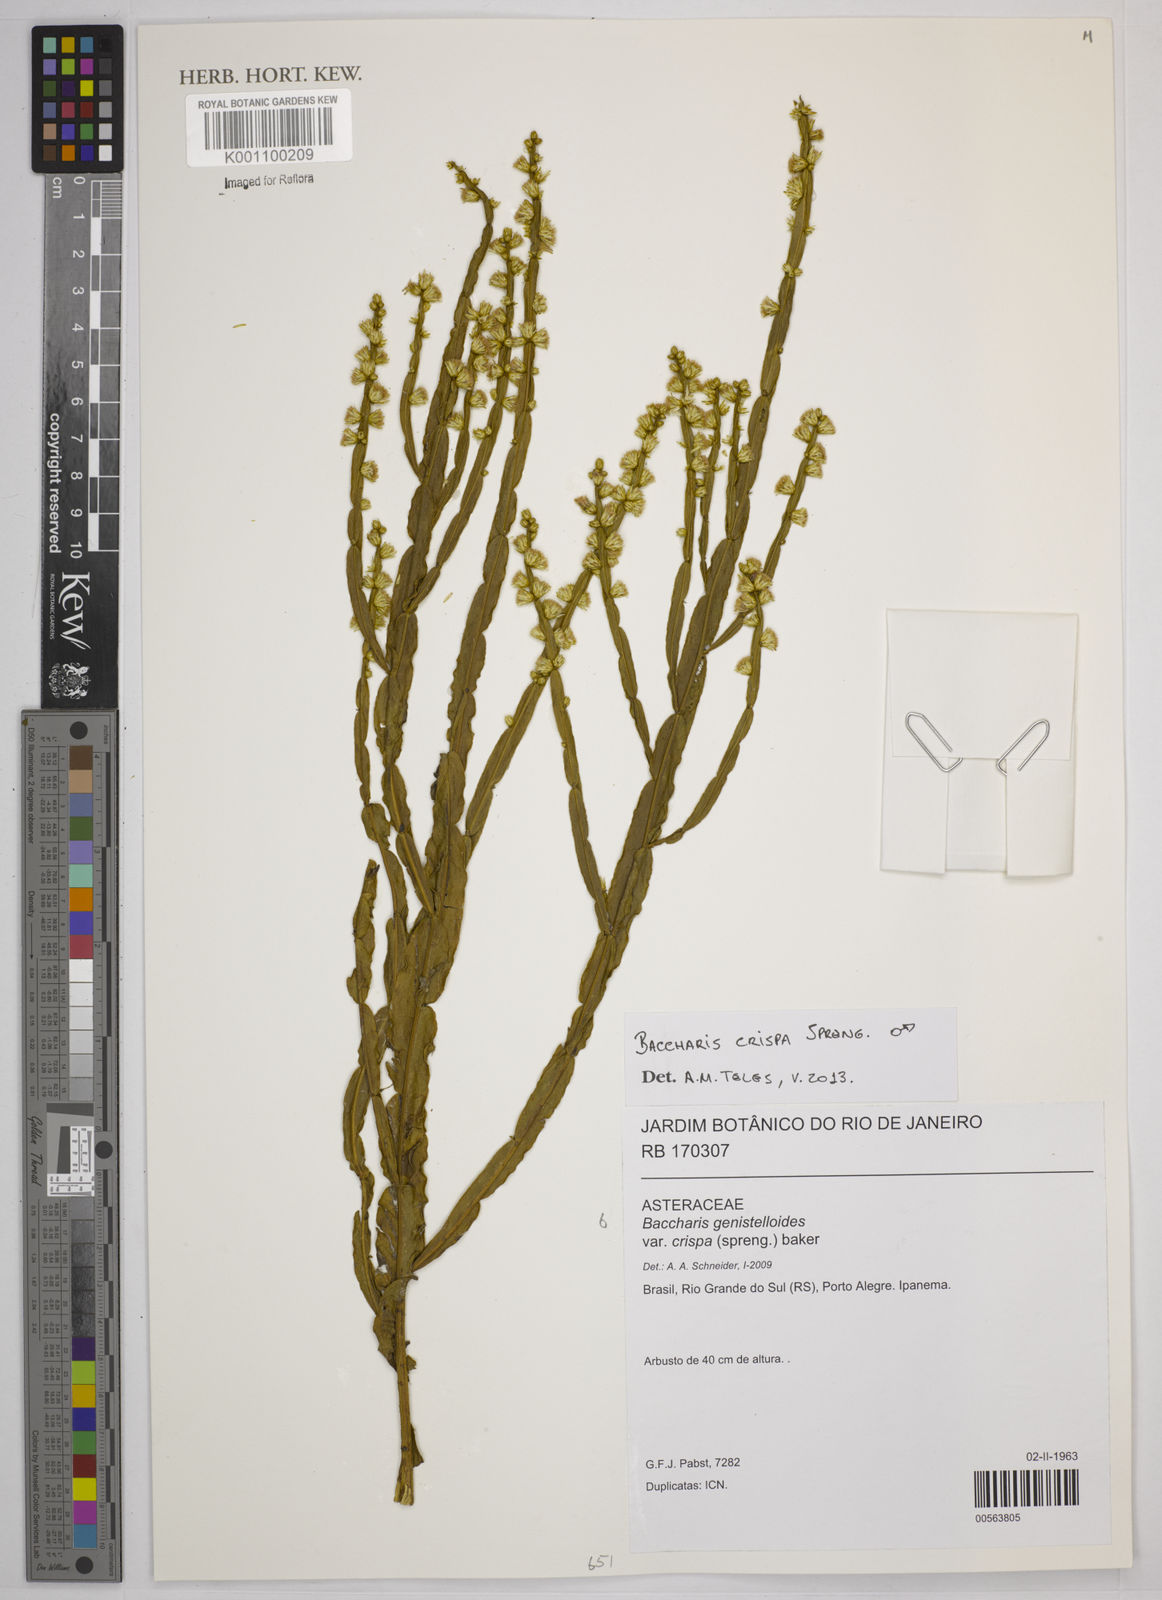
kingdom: Plantae
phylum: Tracheophyta
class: Magnoliopsida
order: Asterales
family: Asteraceae
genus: Baccharis
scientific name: Baccharis crispa
